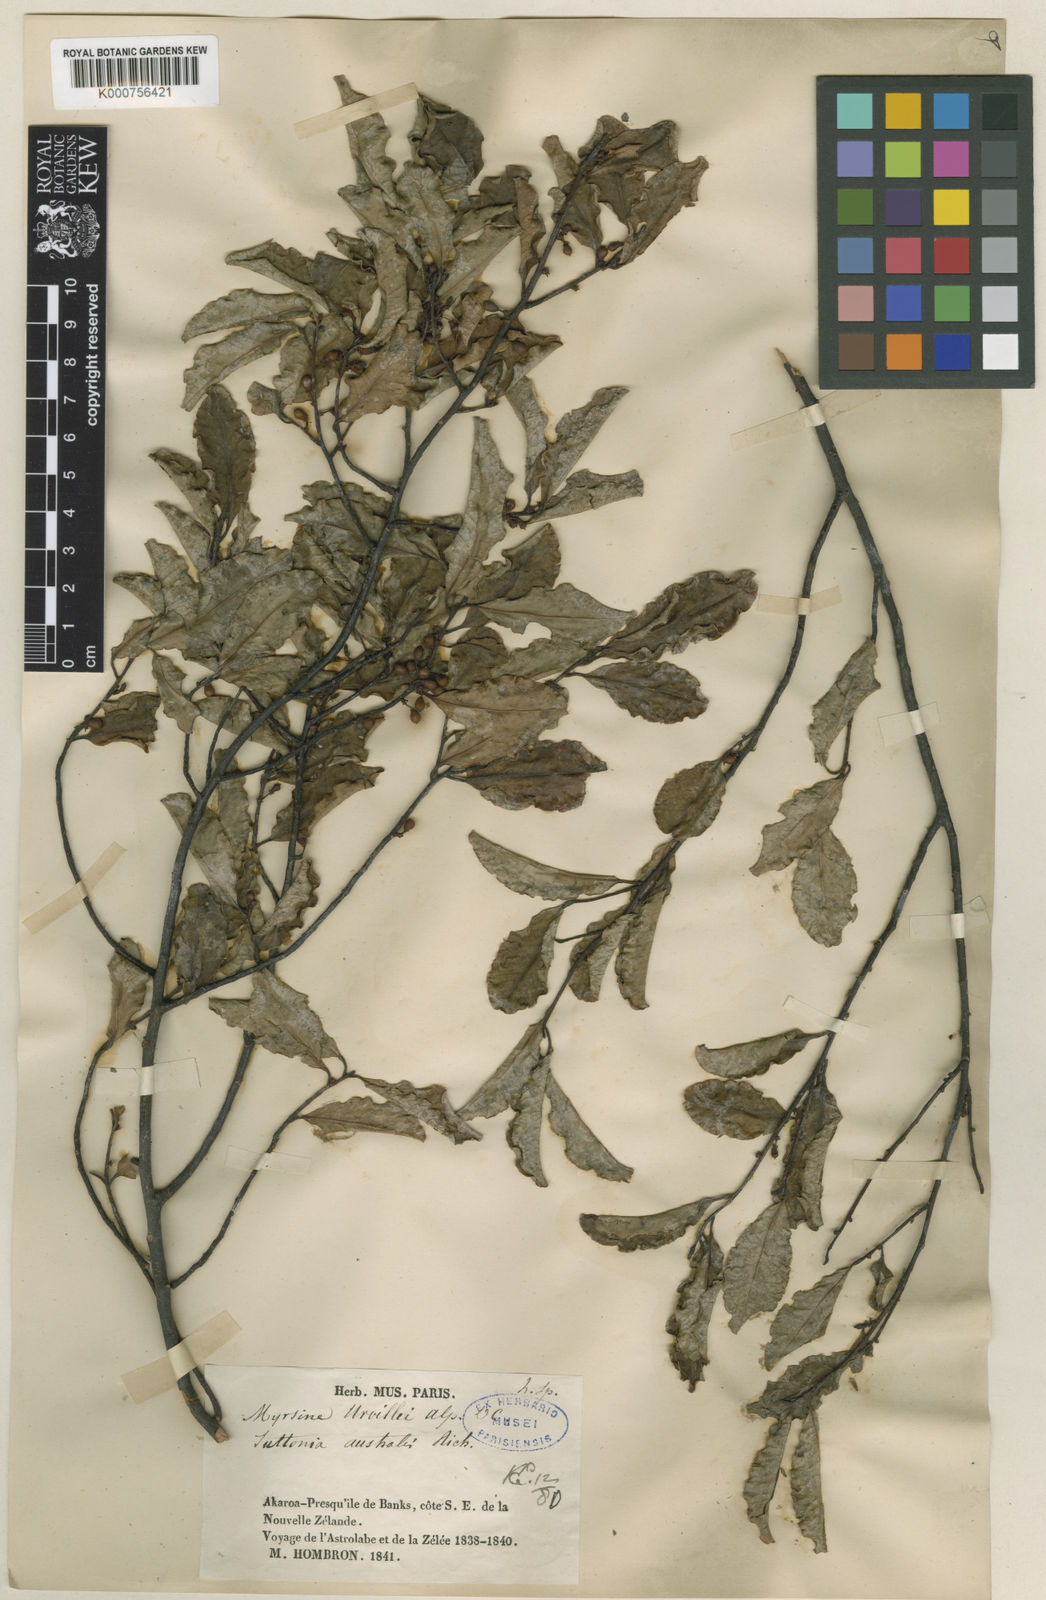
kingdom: Plantae
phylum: Tracheophyta
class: Magnoliopsida
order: Ericales
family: Primulaceae
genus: Myrsine
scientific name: Myrsine australis
